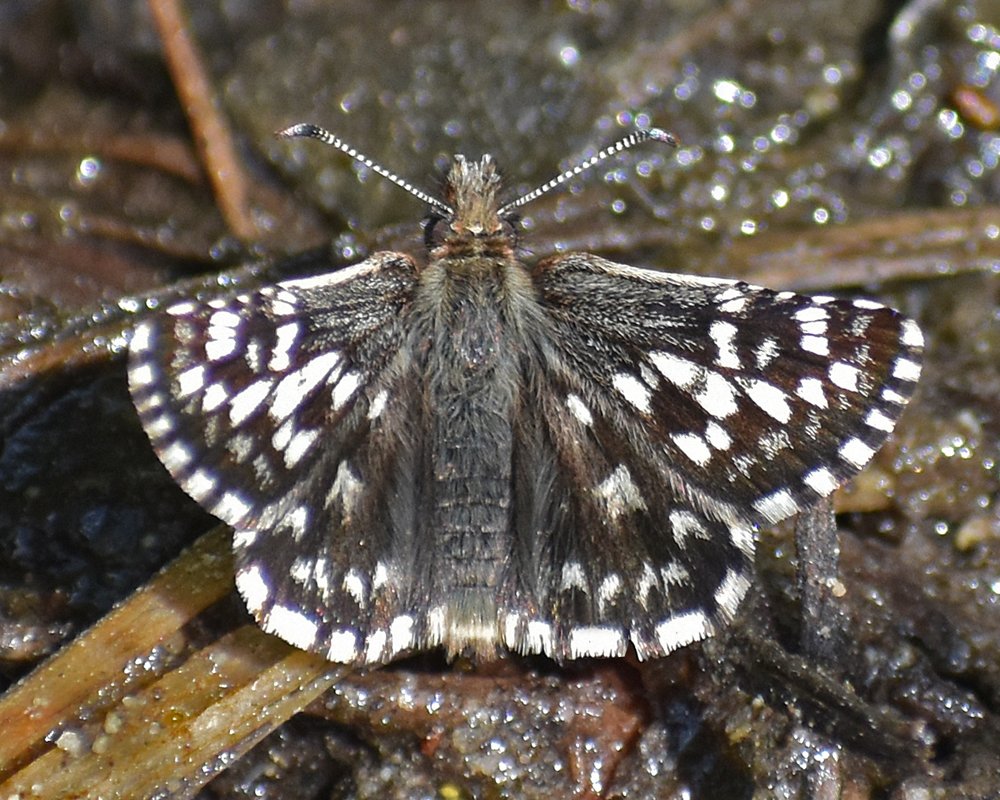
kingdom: Animalia
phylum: Arthropoda
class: Insecta
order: Lepidoptera
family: Hesperiidae
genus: Pyrgus
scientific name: Pyrgus ruralis
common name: Two-banded Checkered-Skipper
